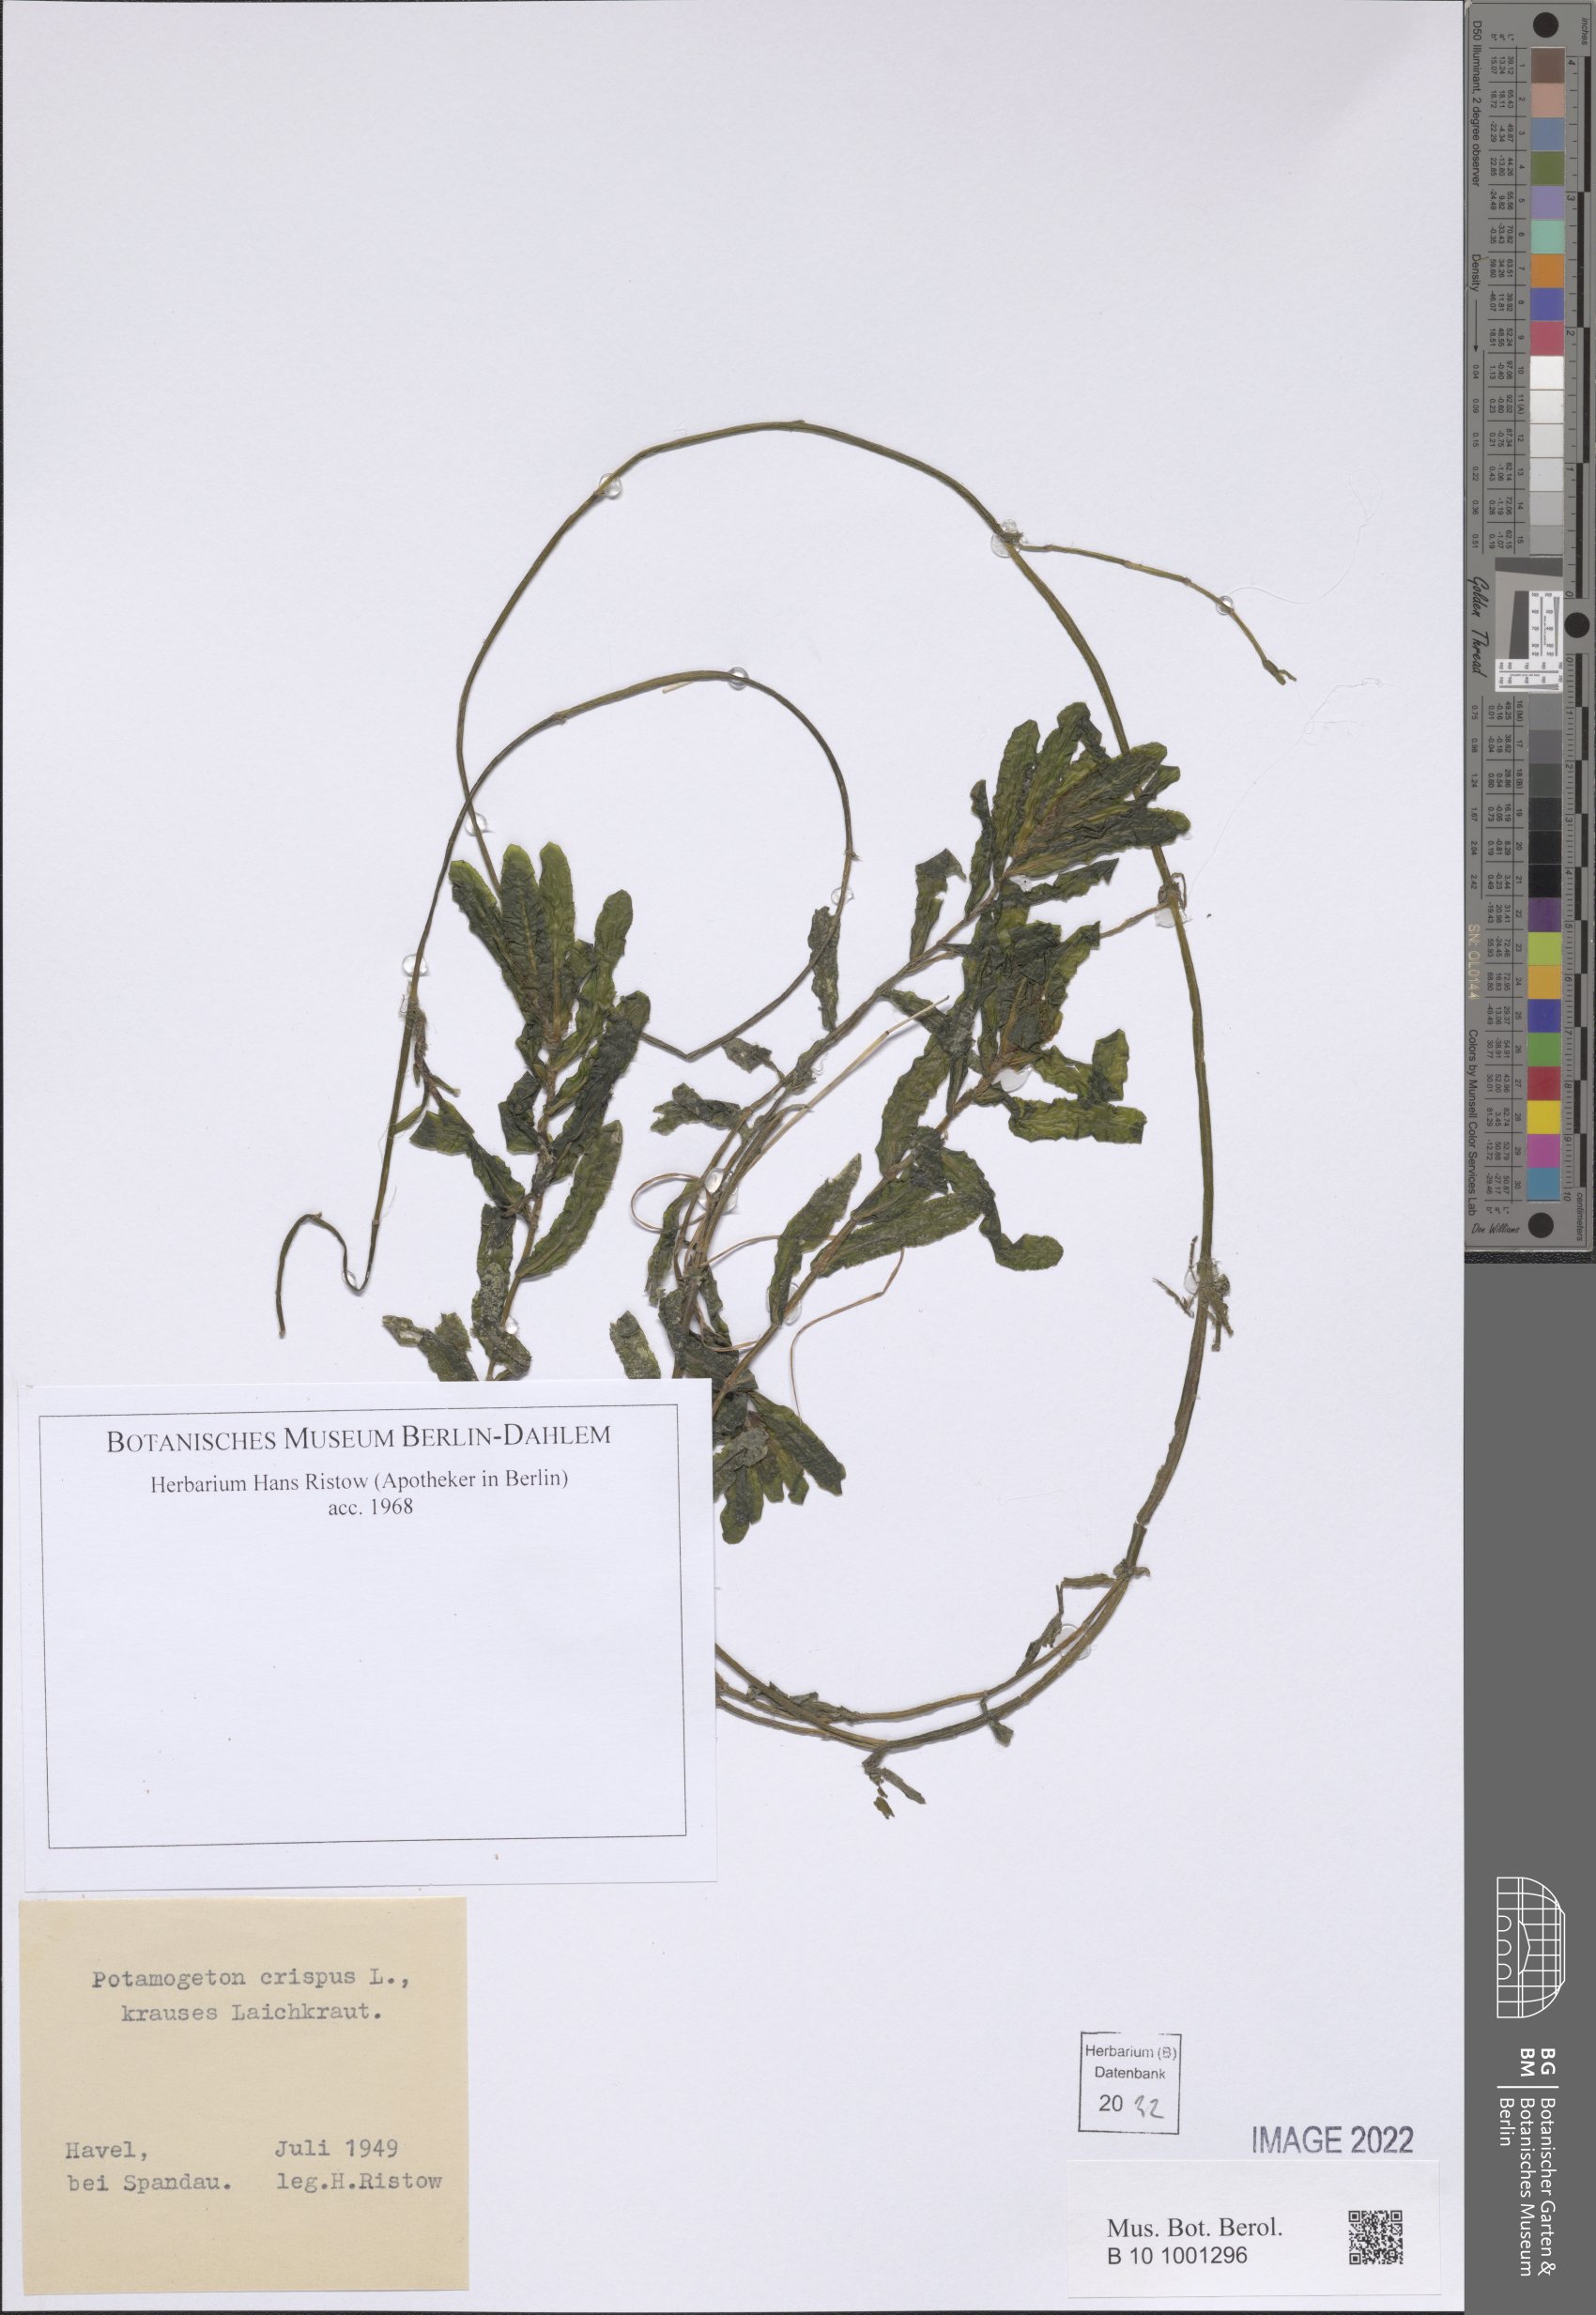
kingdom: Plantae
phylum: Tracheophyta
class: Liliopsida
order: Alismatales
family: Potamogetonaceae
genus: Potamogeton
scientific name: Potamogeton crispus
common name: Curled pondweed
